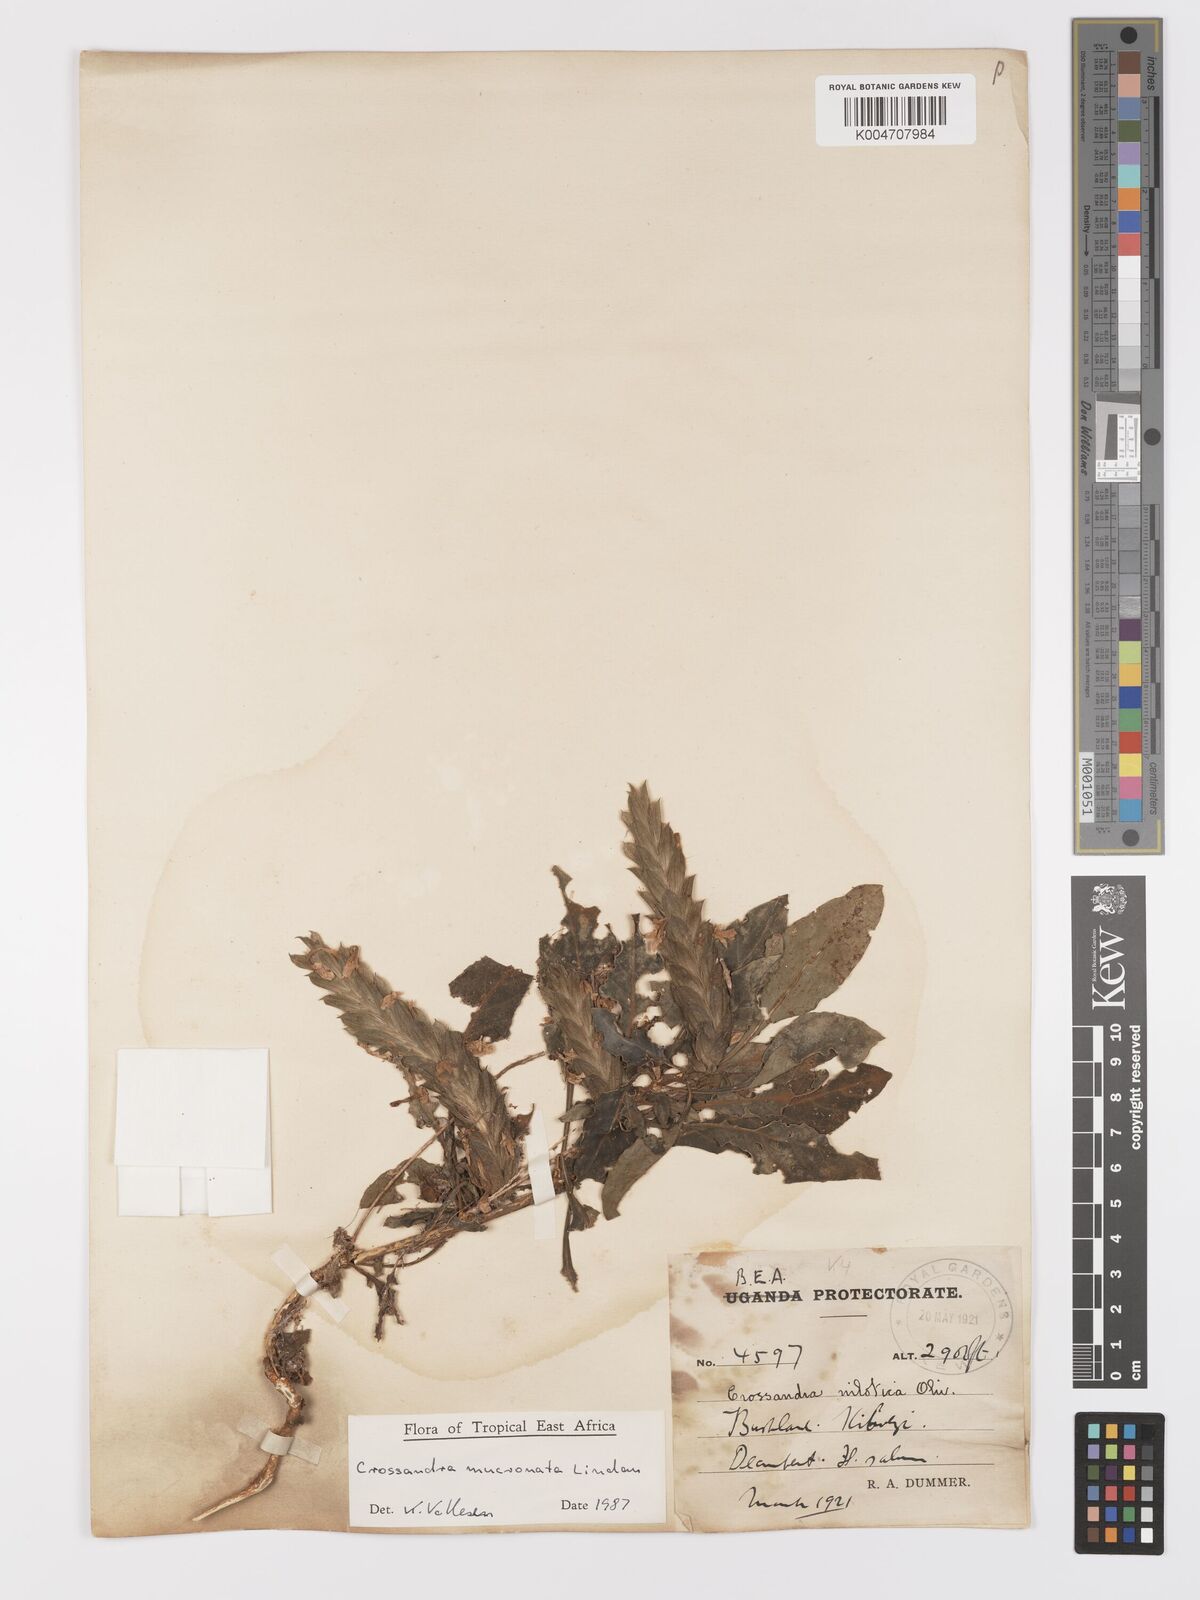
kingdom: Plantae
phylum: Tracheophyta
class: Magnoliopsida
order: Lamiales
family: Acanthaceae
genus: Crossandra
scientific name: Crossandra mucronata
